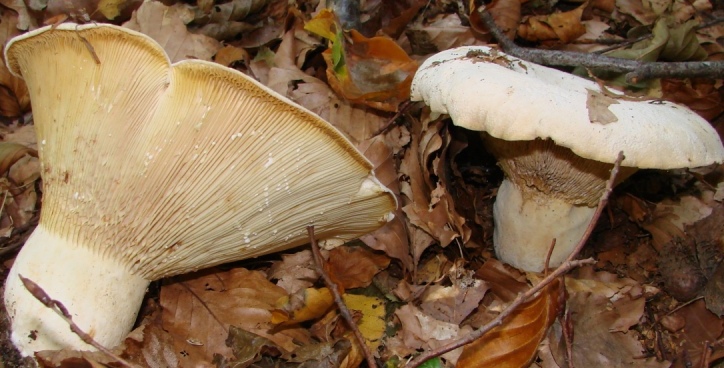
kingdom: Fungi
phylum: Basidiomycota
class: Agaricomycetes
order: Russulales
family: Russulaceae
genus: Lactifluus
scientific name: Lactifluus piperatus
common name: peber-mælkehat
